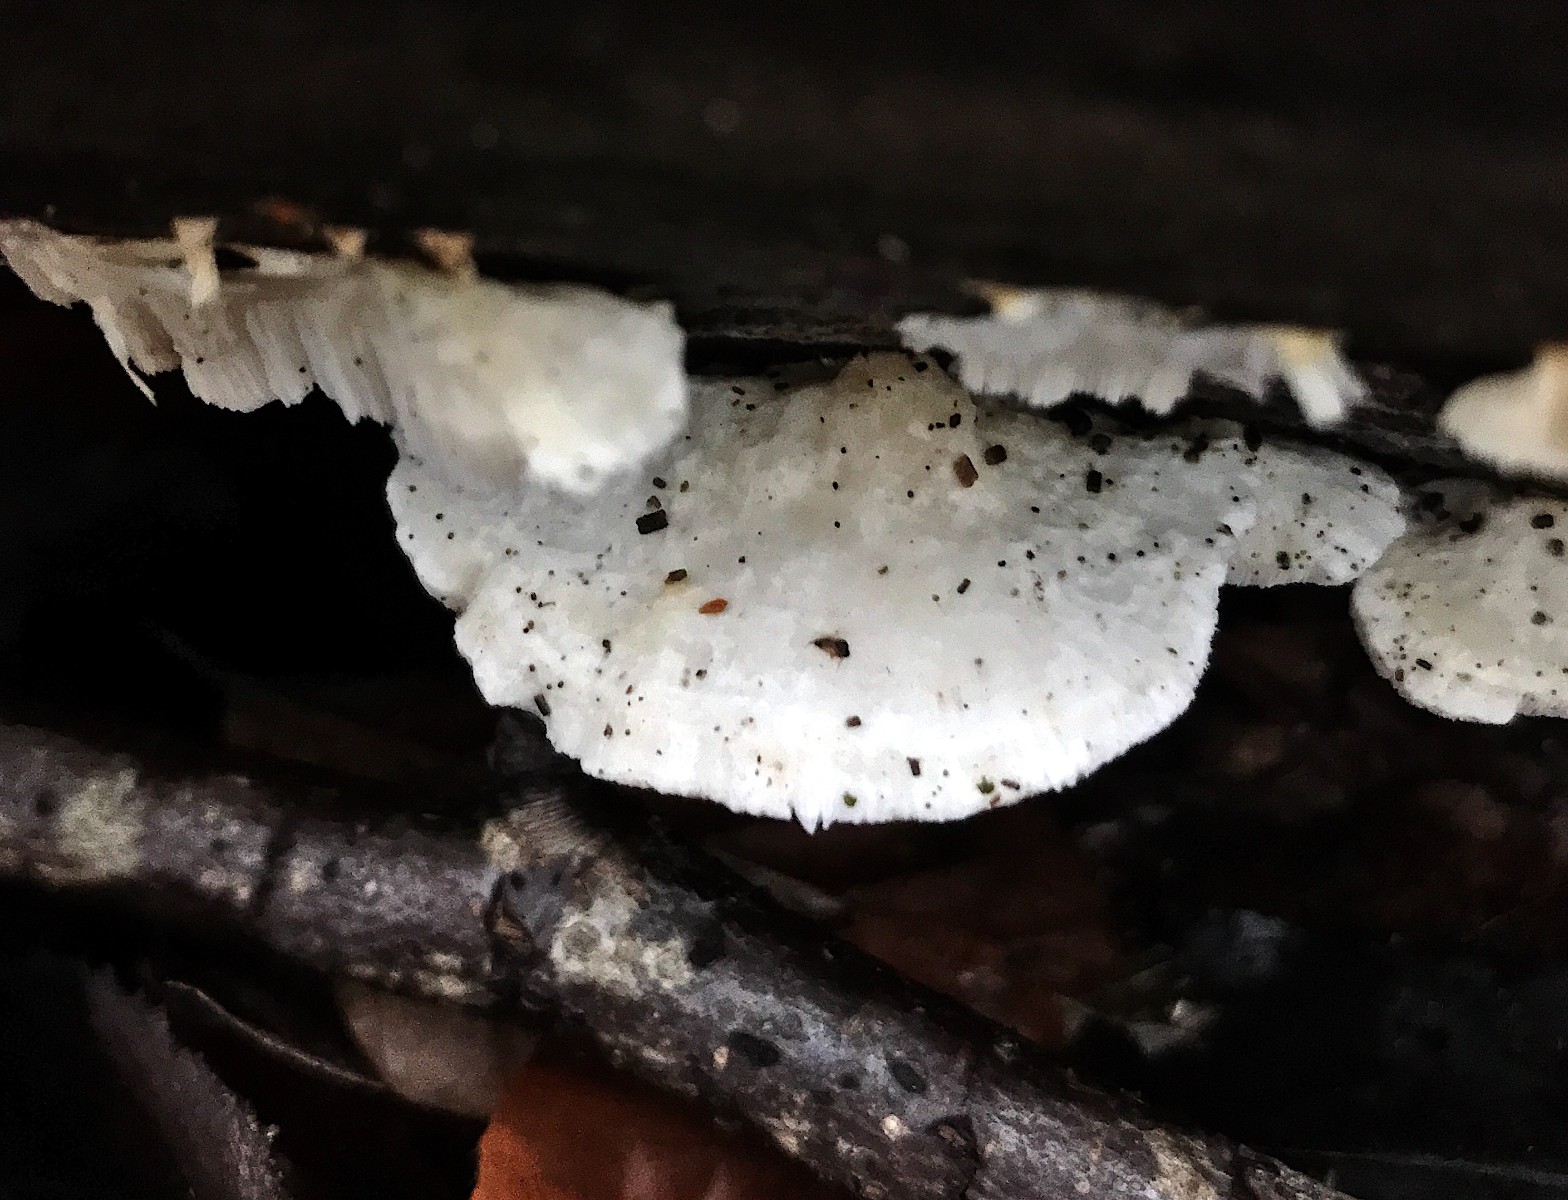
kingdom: Fungi
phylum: Basidiomycota
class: Agaricomycetes
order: Polyporales
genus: Amaropostia
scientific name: Amaropostia stiptica
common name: bitter kødporesvamp
